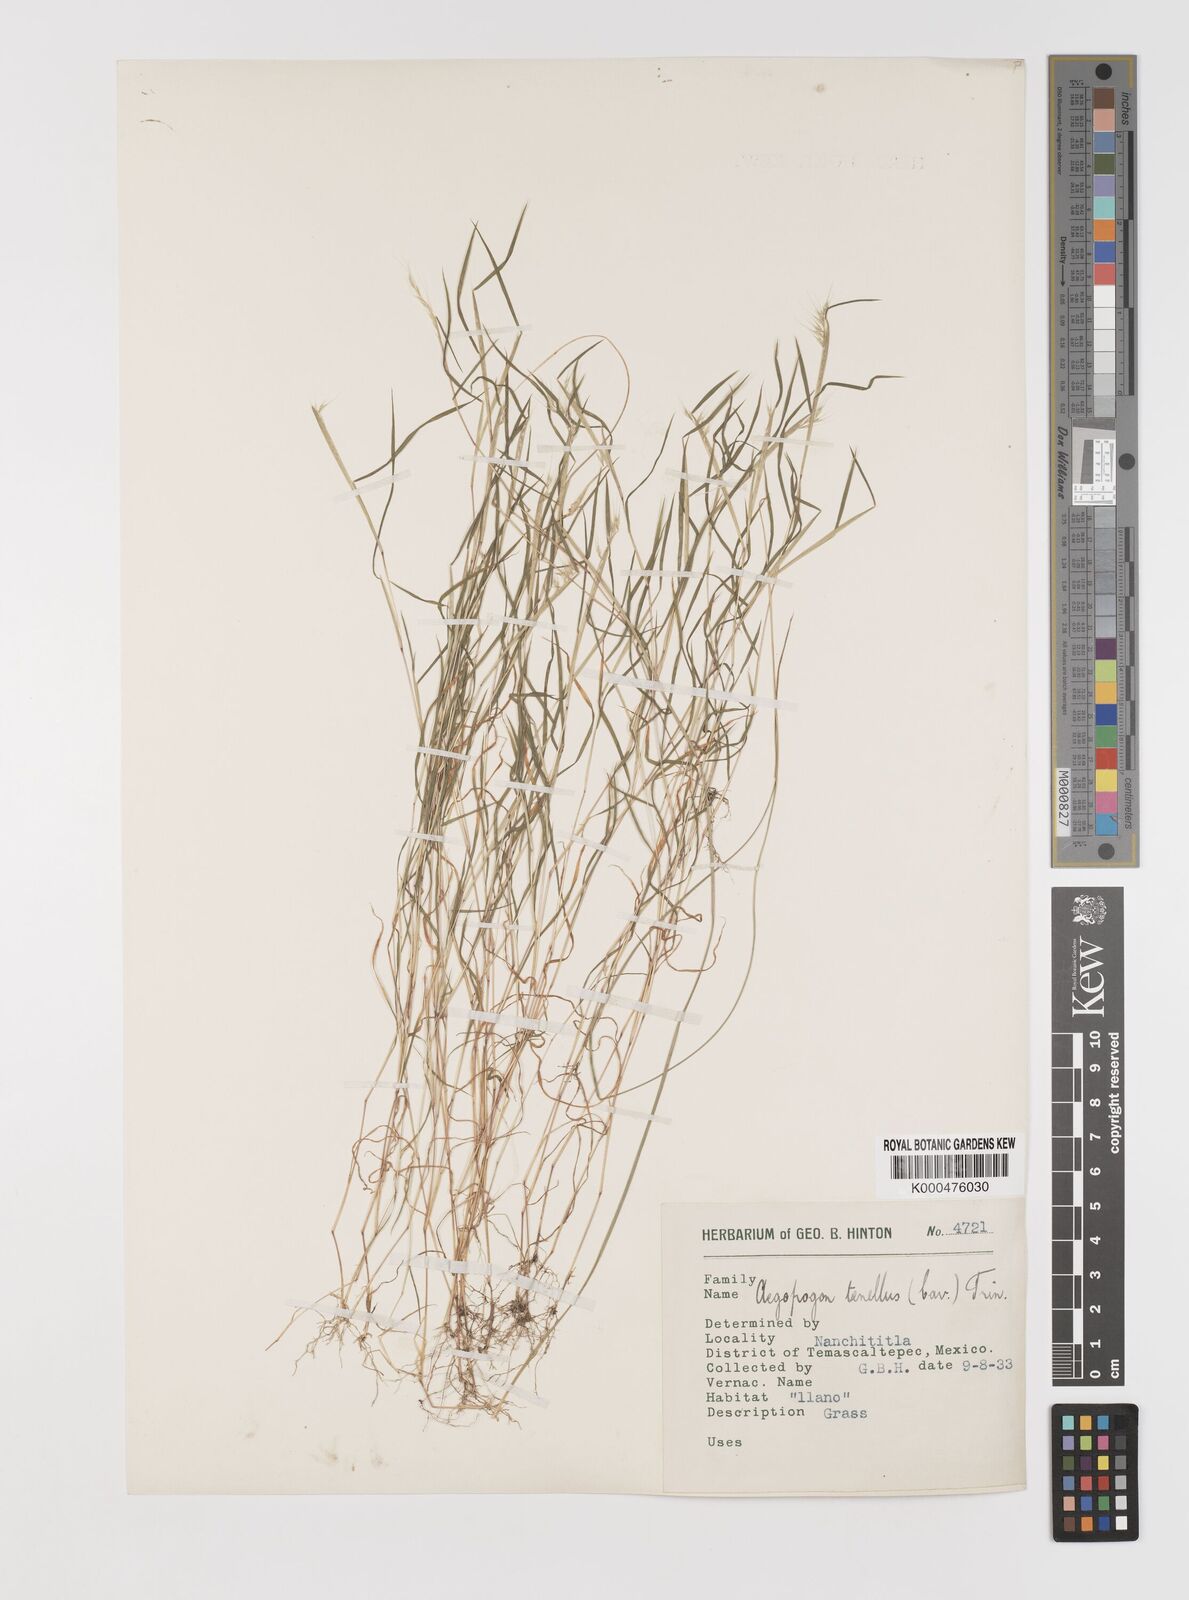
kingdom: Plantae
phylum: Tracheophyta
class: Liliopsida
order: Poales
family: Poaceae
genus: Muhlenbergia
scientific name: Muhlenbergia uniseta
